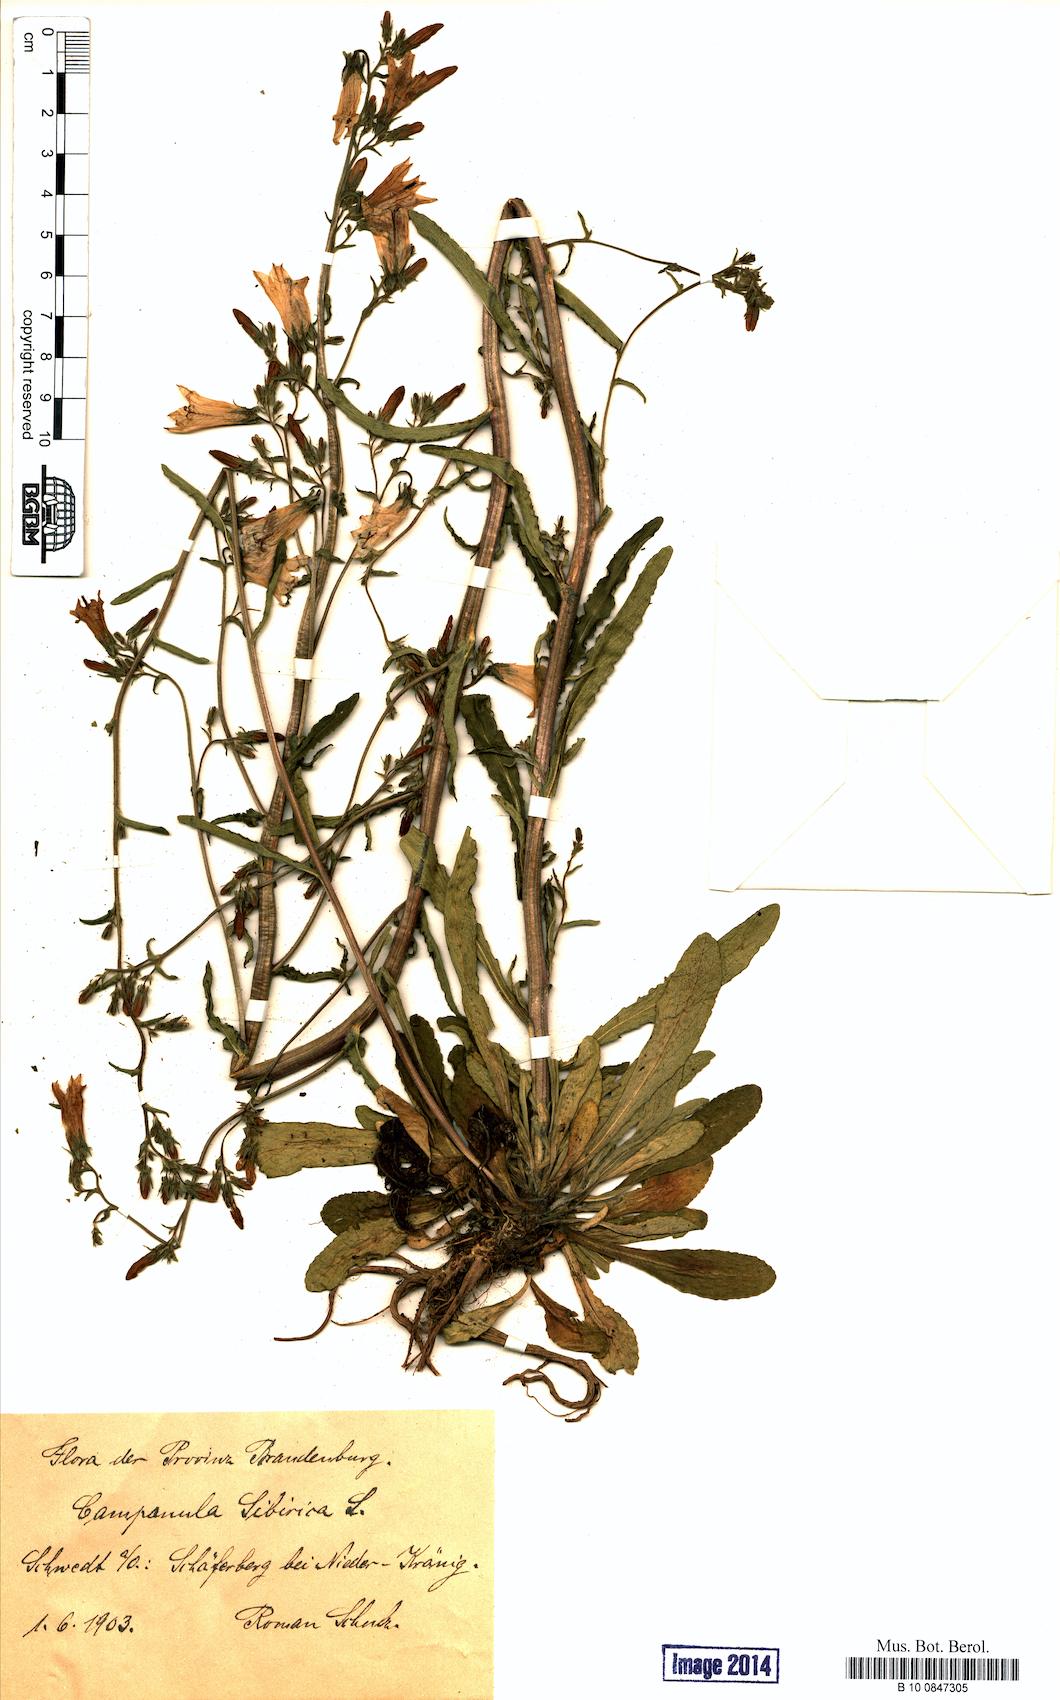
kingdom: Plantae
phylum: Tracheophyta
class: Magnoliopsida
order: Asterales
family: Campanulaceae
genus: Campanula
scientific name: Campanula sibirica
